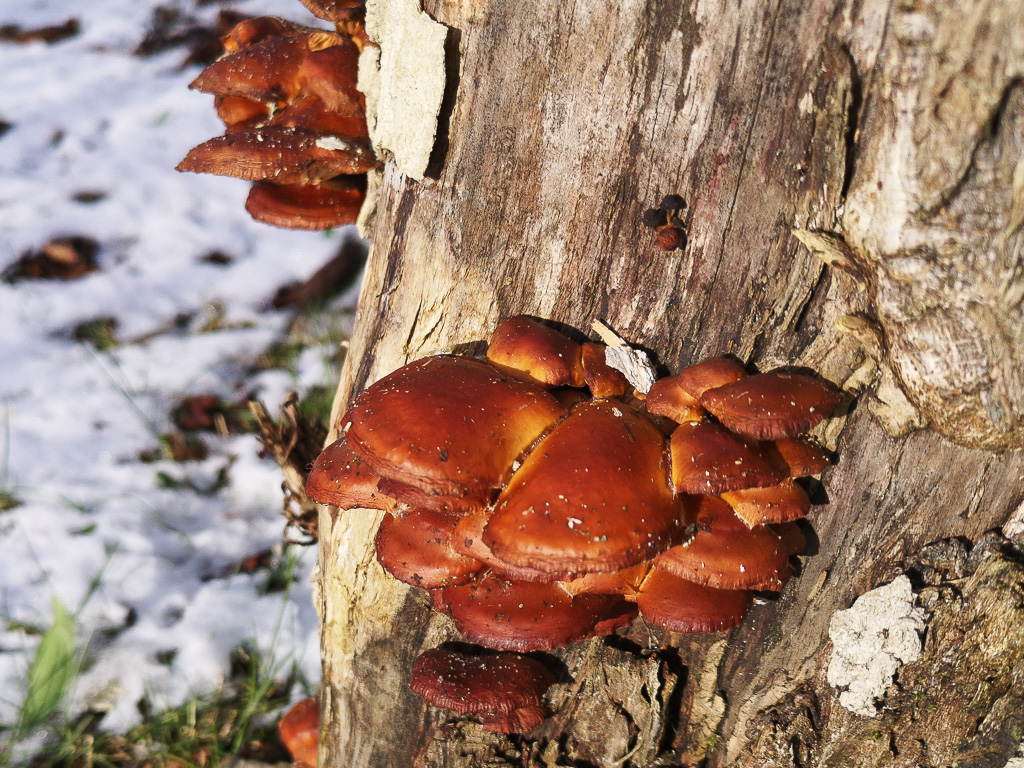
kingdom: Fungi
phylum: Basidiomycota
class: Agaricomycetes
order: Agaricales
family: Physalacriaceae
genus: Flammulina
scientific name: Flammulina velutipes
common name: gul fløjlsfod
